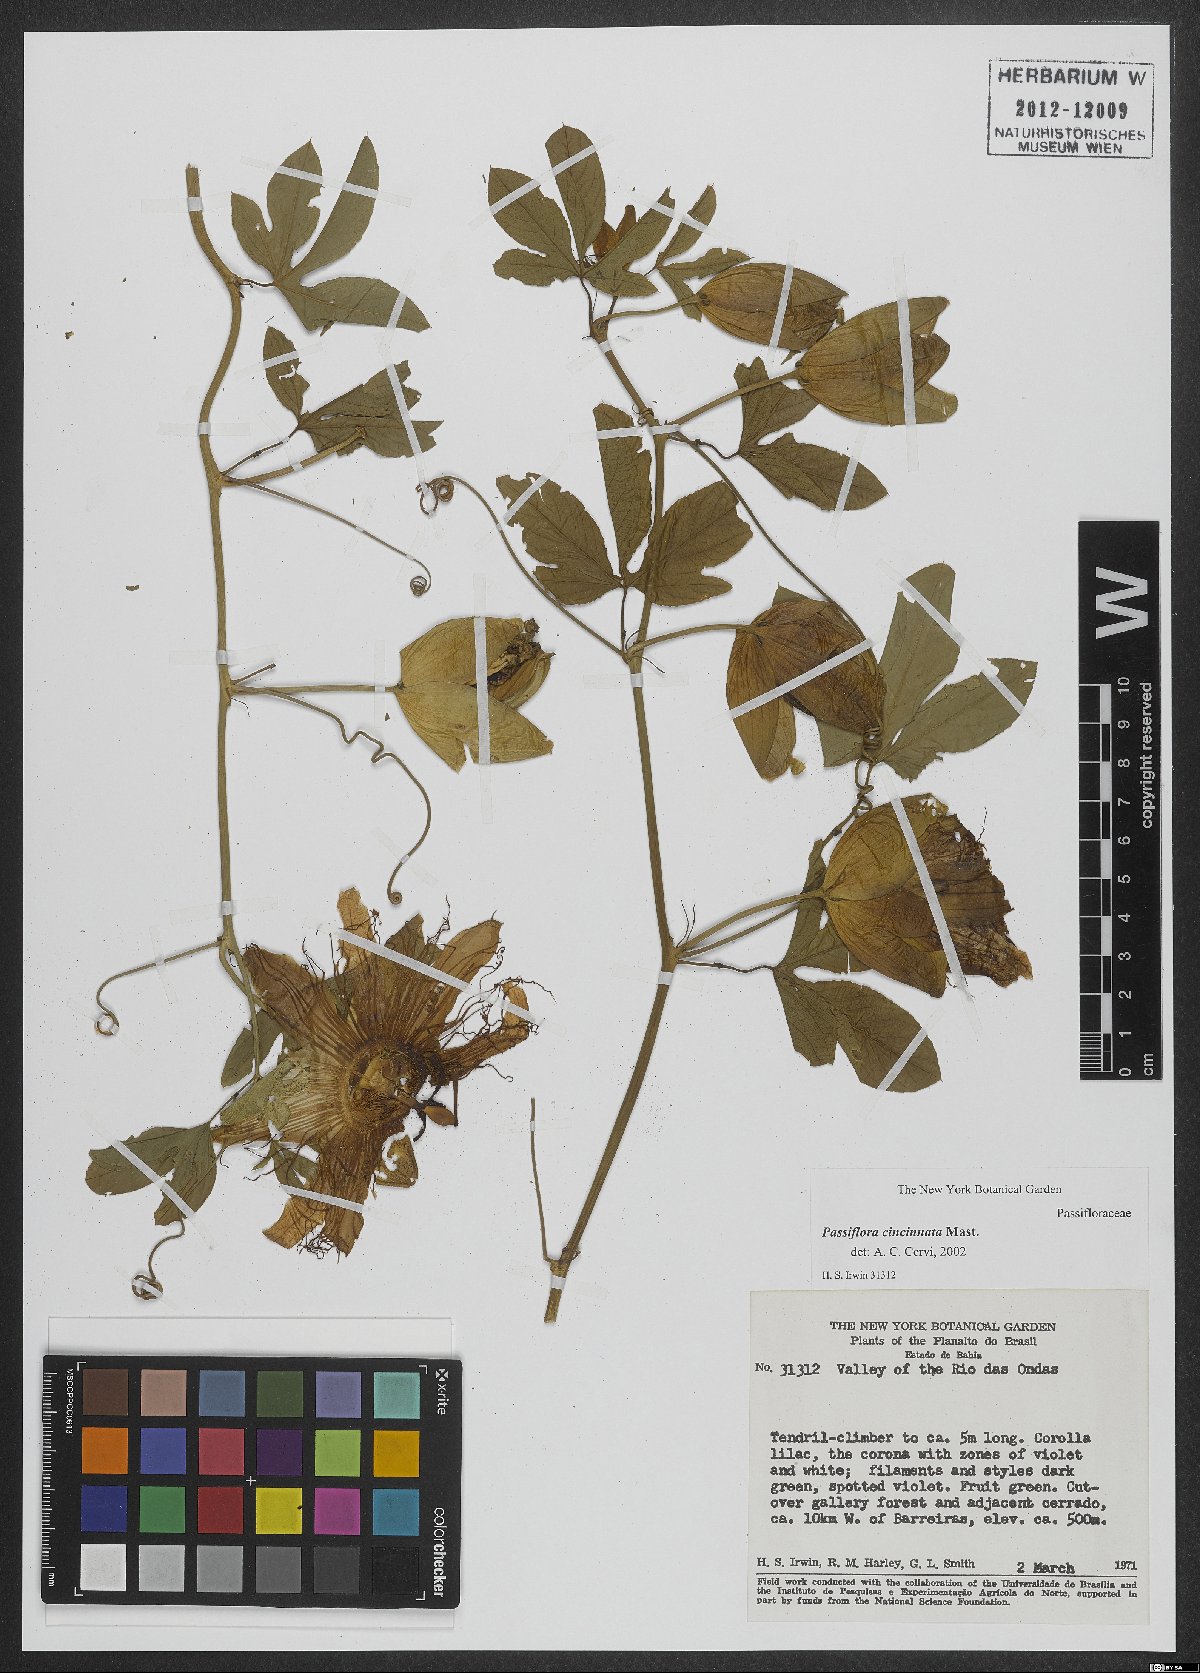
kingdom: Plantae
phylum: Tracheophyta
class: Magnoliopsida
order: Malpighiales
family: Passifloraceae
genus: Passiflora
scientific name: Passiflora cincinnata
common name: Crato passionvine
